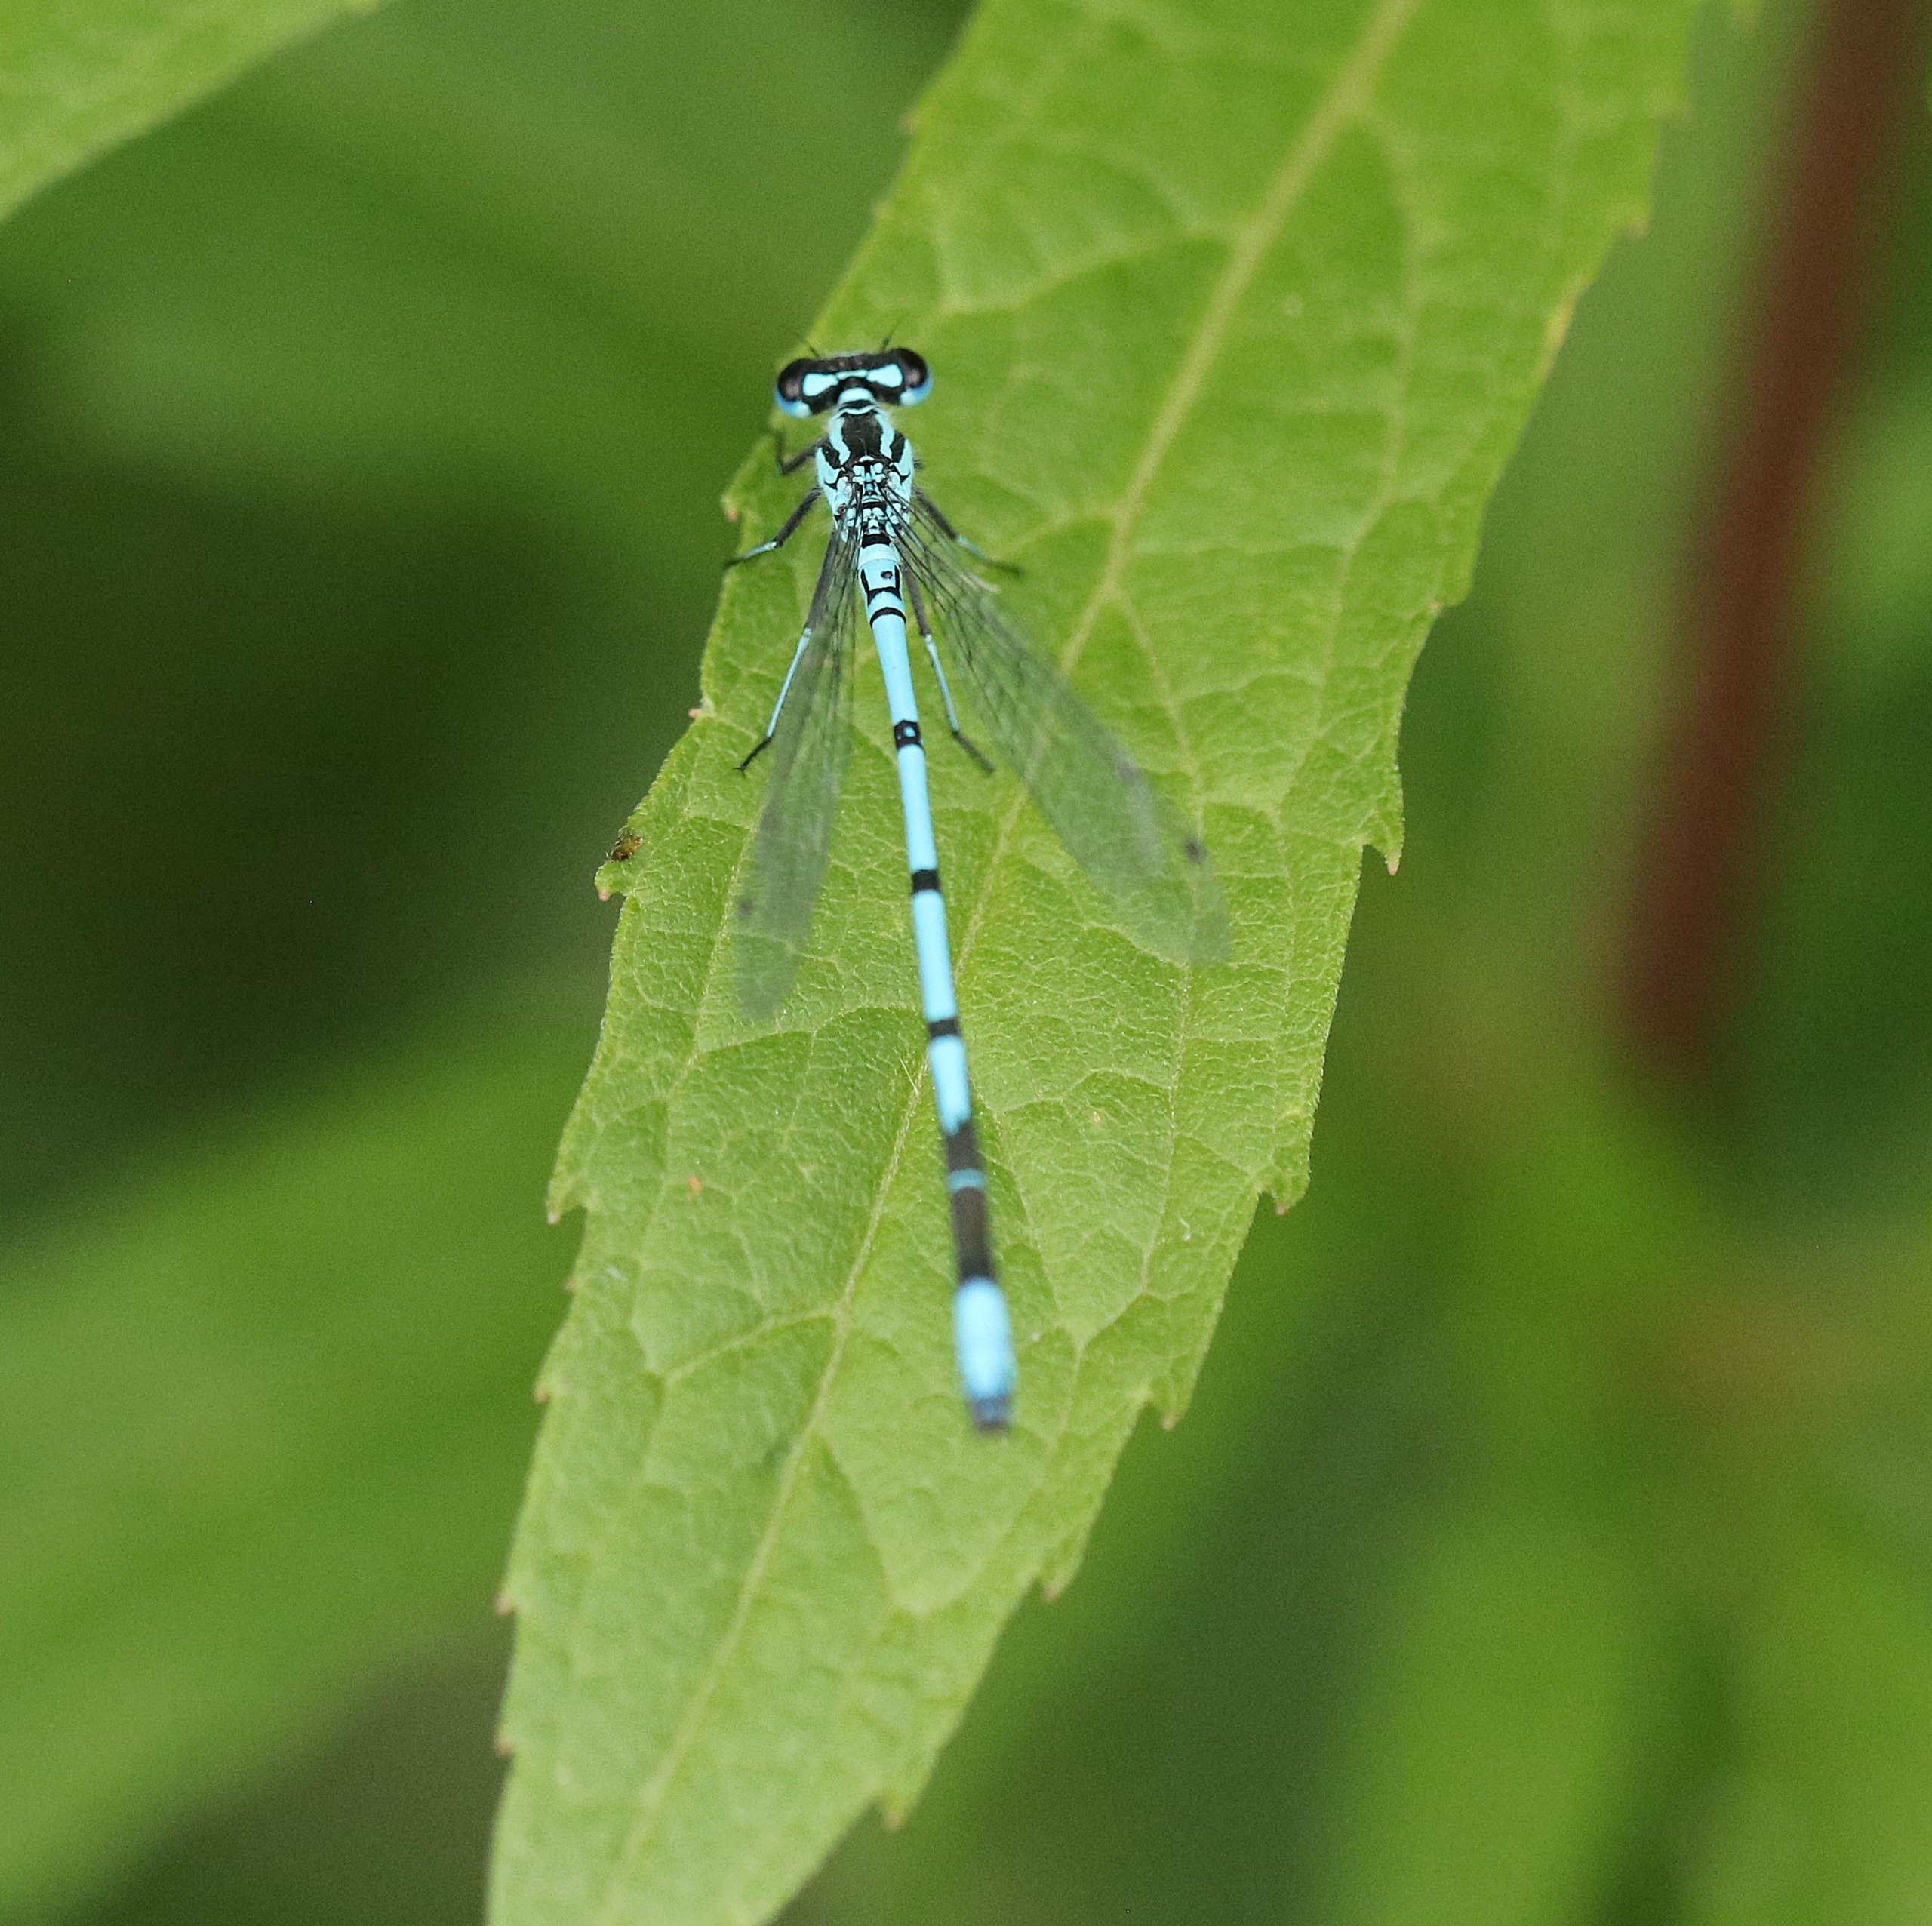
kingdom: Animalia
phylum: Arthropoda
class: Insecta
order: Odonata
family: Coenagrionidae
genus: Coenagrion
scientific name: Coenagrion puella
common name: Hestesko-vandnymfe
